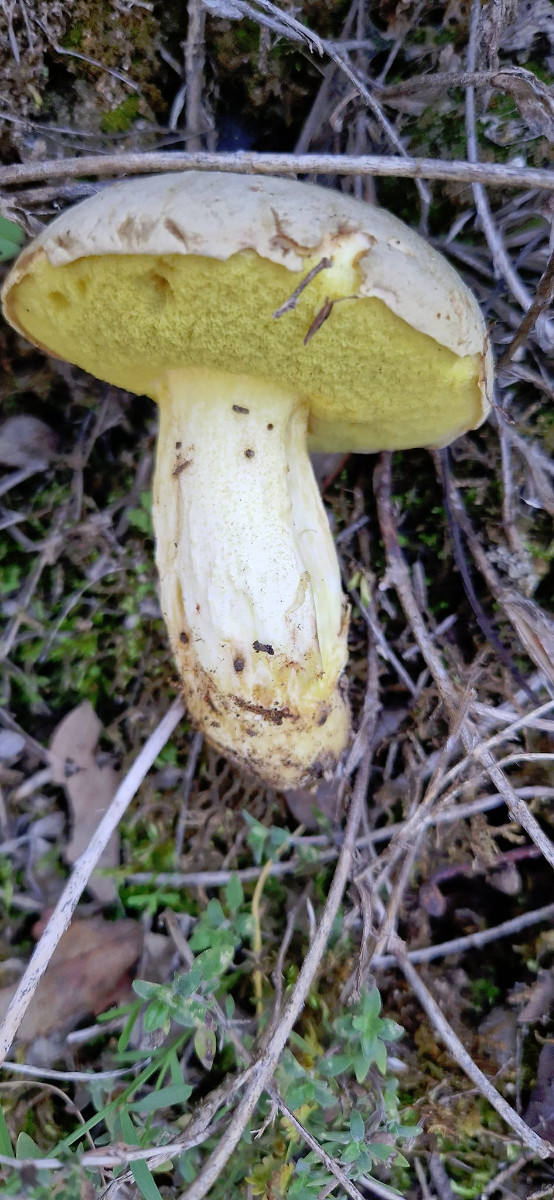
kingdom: Fungi
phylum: Basidiomycota
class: Agaricomycetes
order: Boletales
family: Boletaceae
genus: Hemileccinum
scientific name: Hemileccinum impolitum
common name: bleg rørhat
